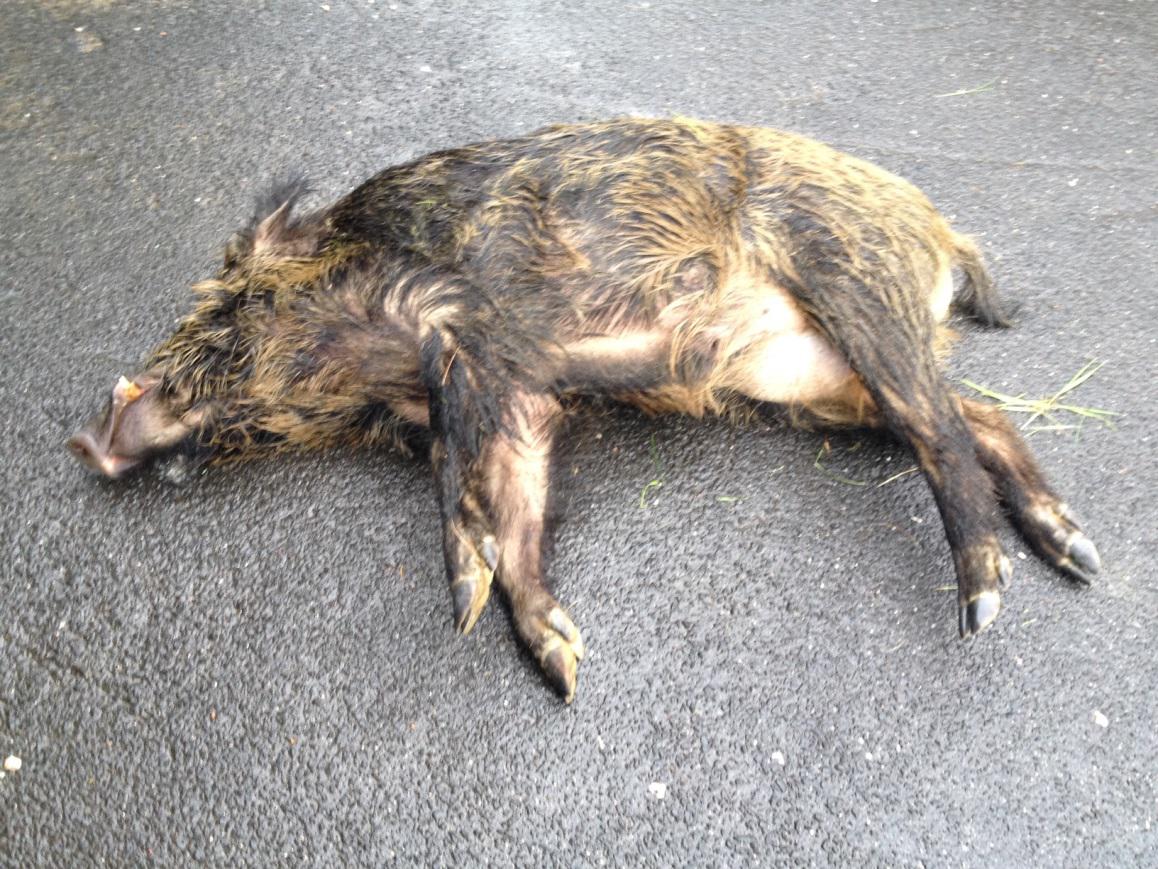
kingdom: Animalia
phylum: Chordata
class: Mammalia
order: Artiodactyla
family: Suidae
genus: Sus
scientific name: Sus scrofa
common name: Wild boar
